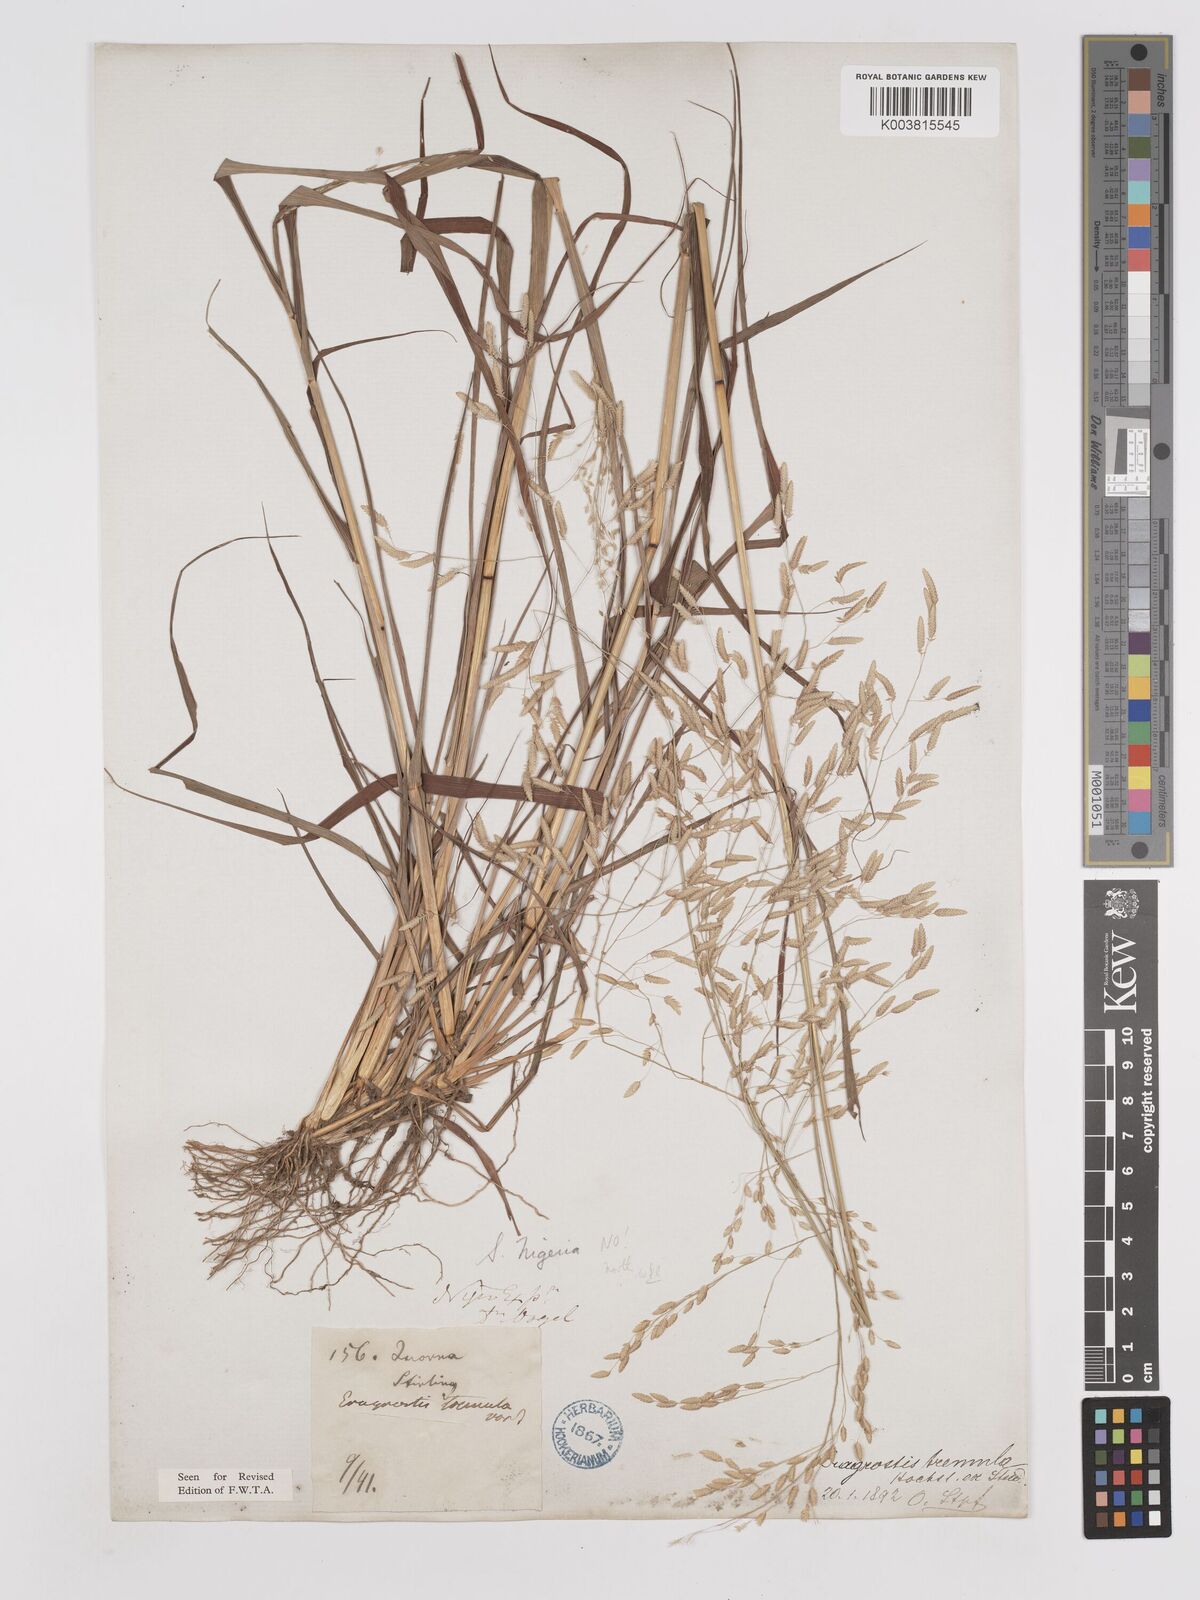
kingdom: Plantae
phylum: Tracheophyta
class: Liliopsida
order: Poales
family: Poaceae
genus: Eragrostis
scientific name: Eragrostis tremula
